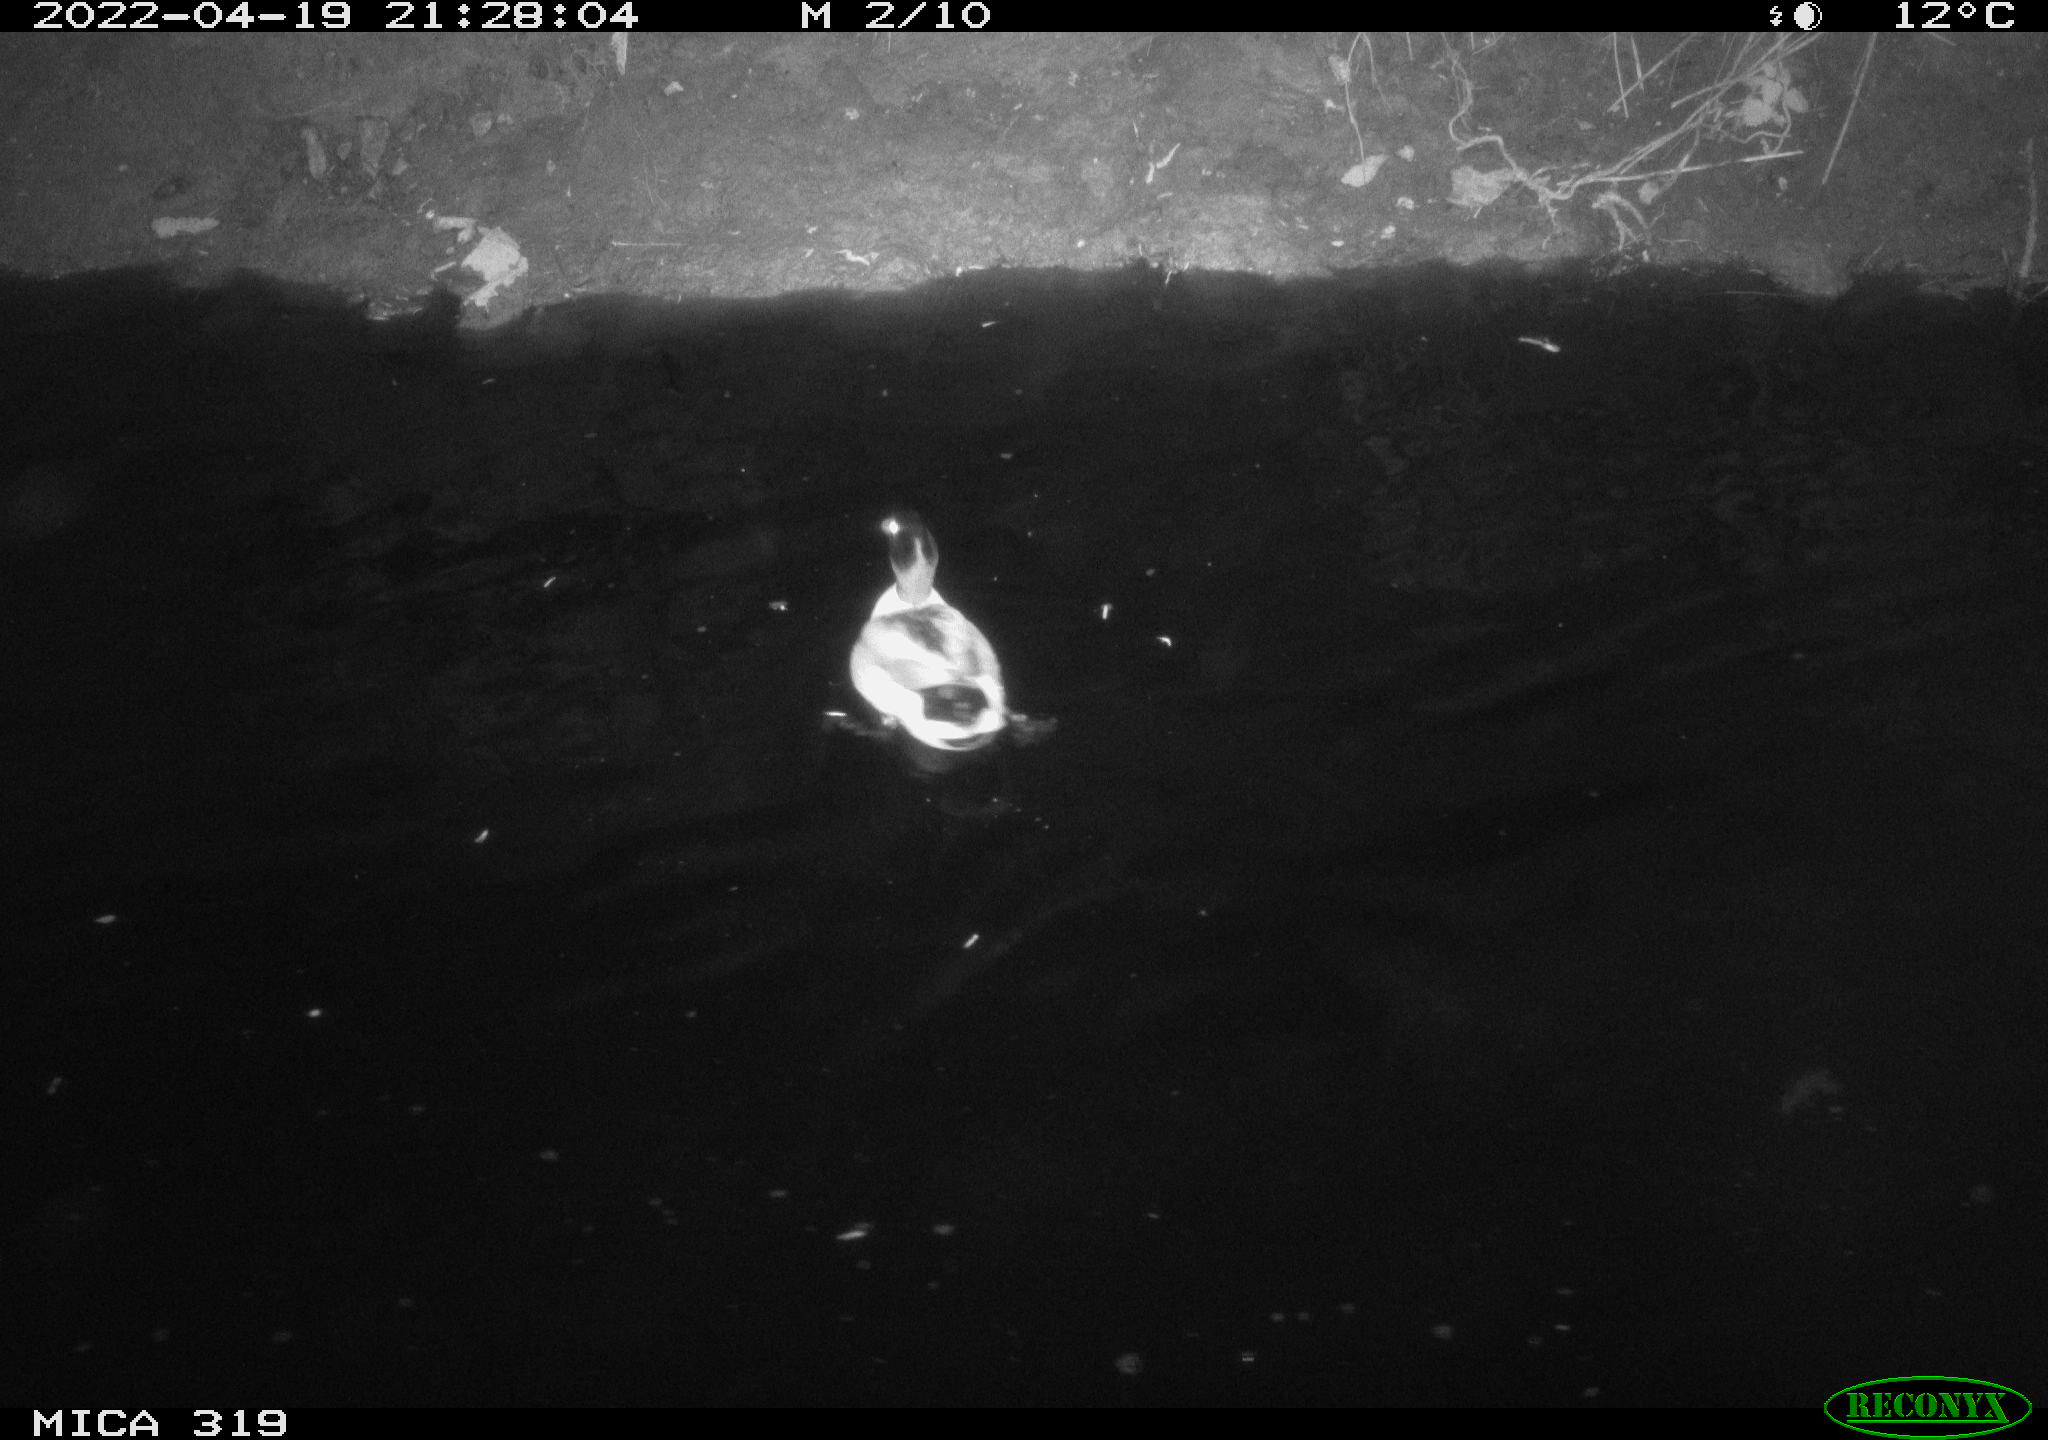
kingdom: Animalia
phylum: Chordata
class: Aves
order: Anseriformes
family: Anatidae
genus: Anas
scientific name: Anas platyrhynchos
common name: Mallard
